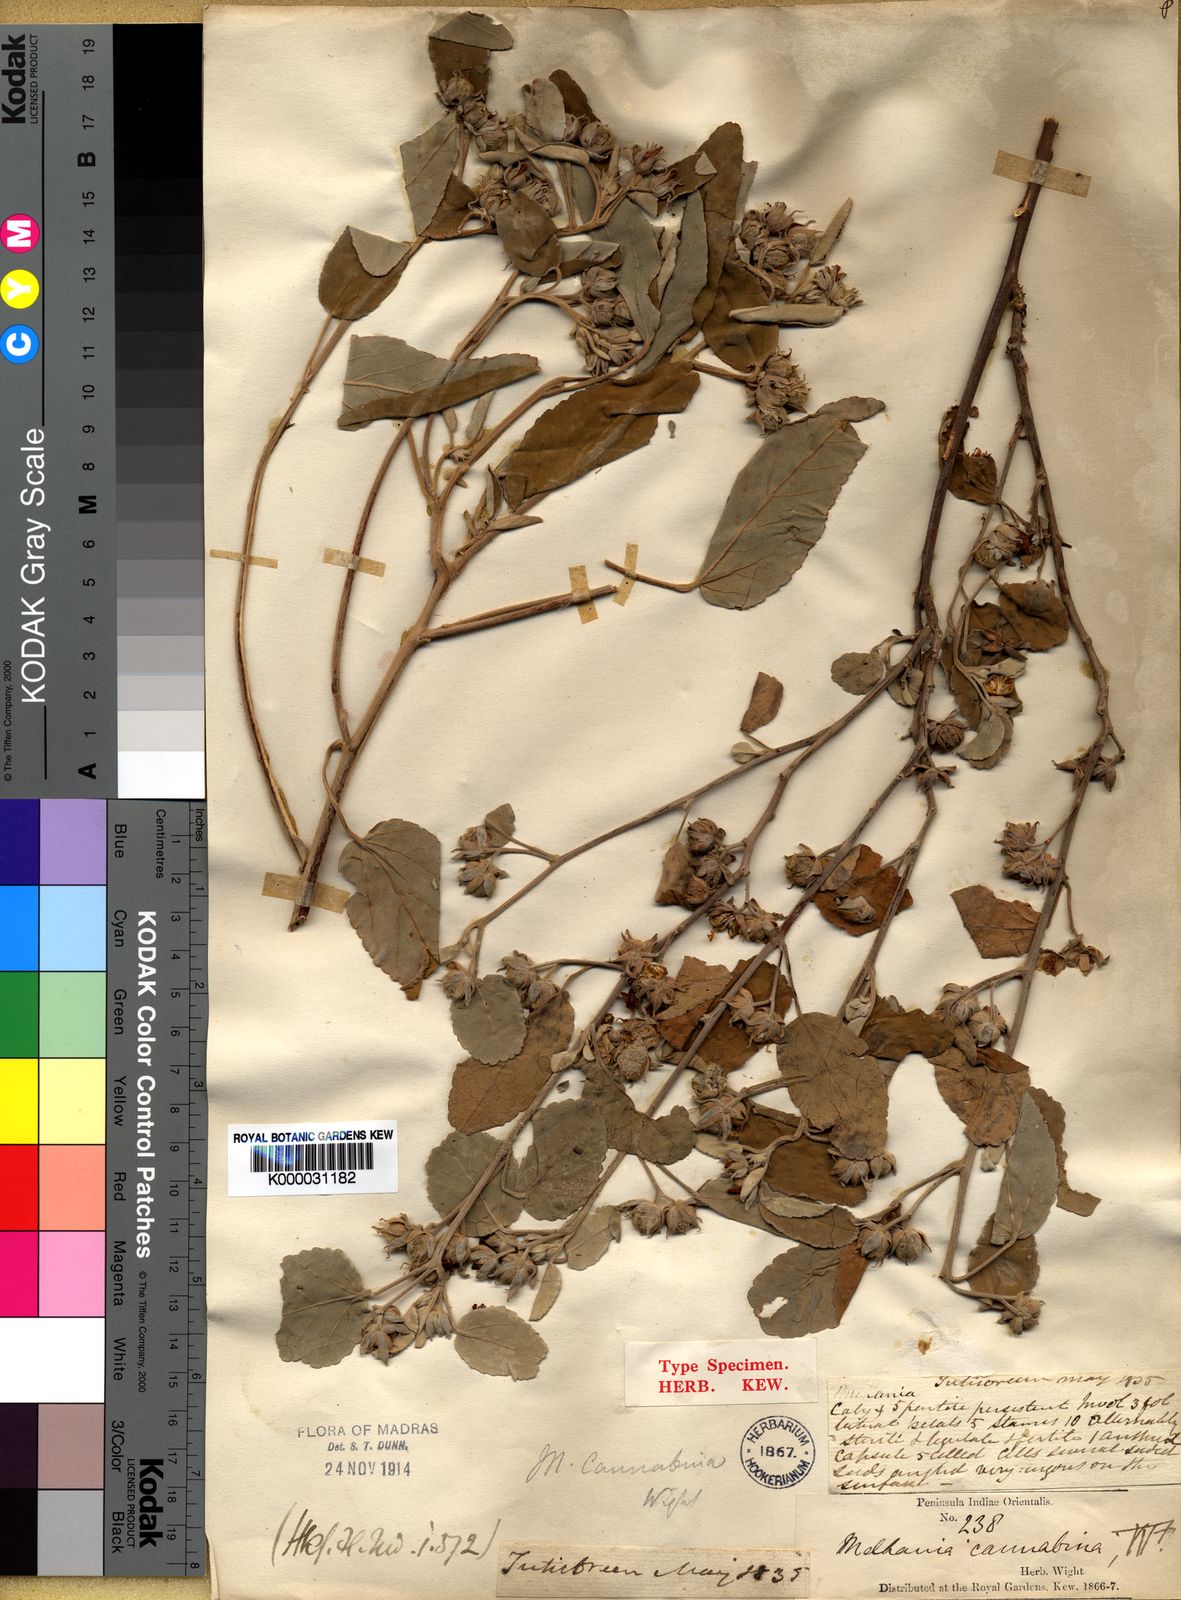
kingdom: Plantae
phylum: Tracheophyta
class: Magnoliopsida
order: Malvales
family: Malvaceae
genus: Melhania
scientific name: Melhania cannabina
